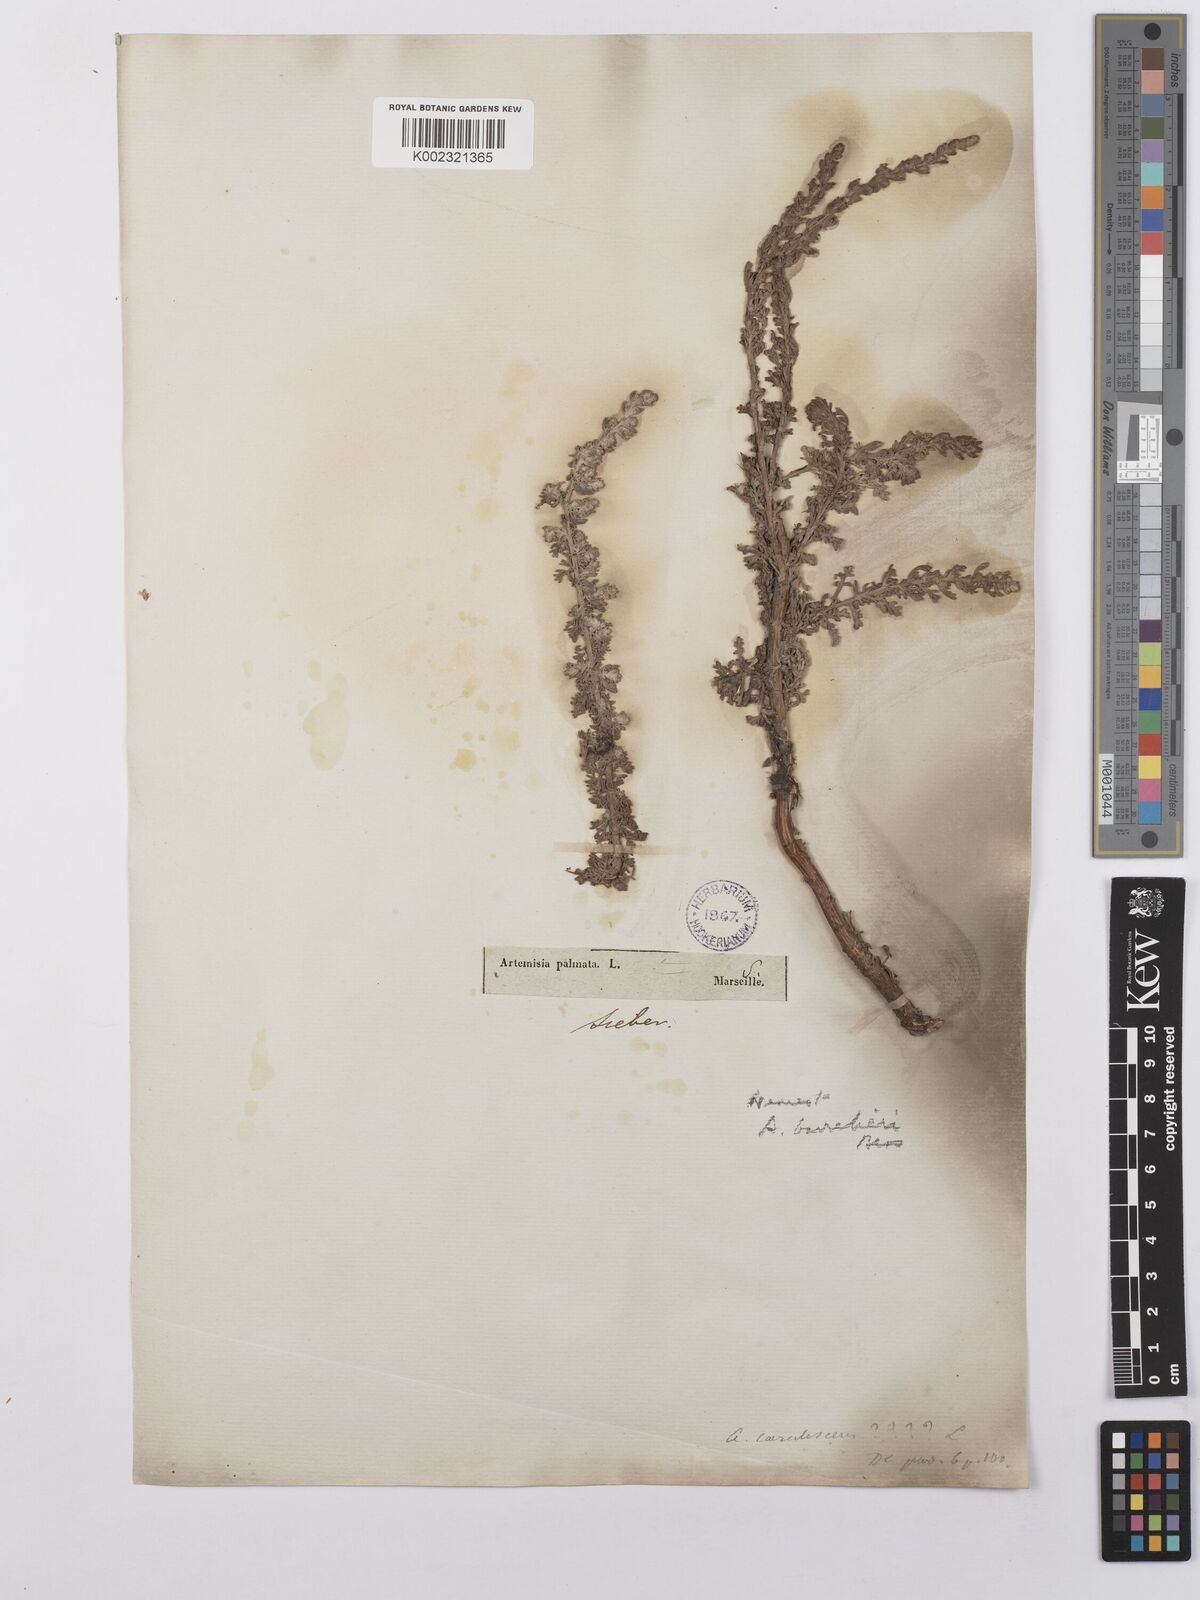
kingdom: Plantae
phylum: Tracheophyta
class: Magnoliopsida
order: Asterales
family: Asteraceae
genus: Artemisia
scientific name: Artemisia barrelieri
